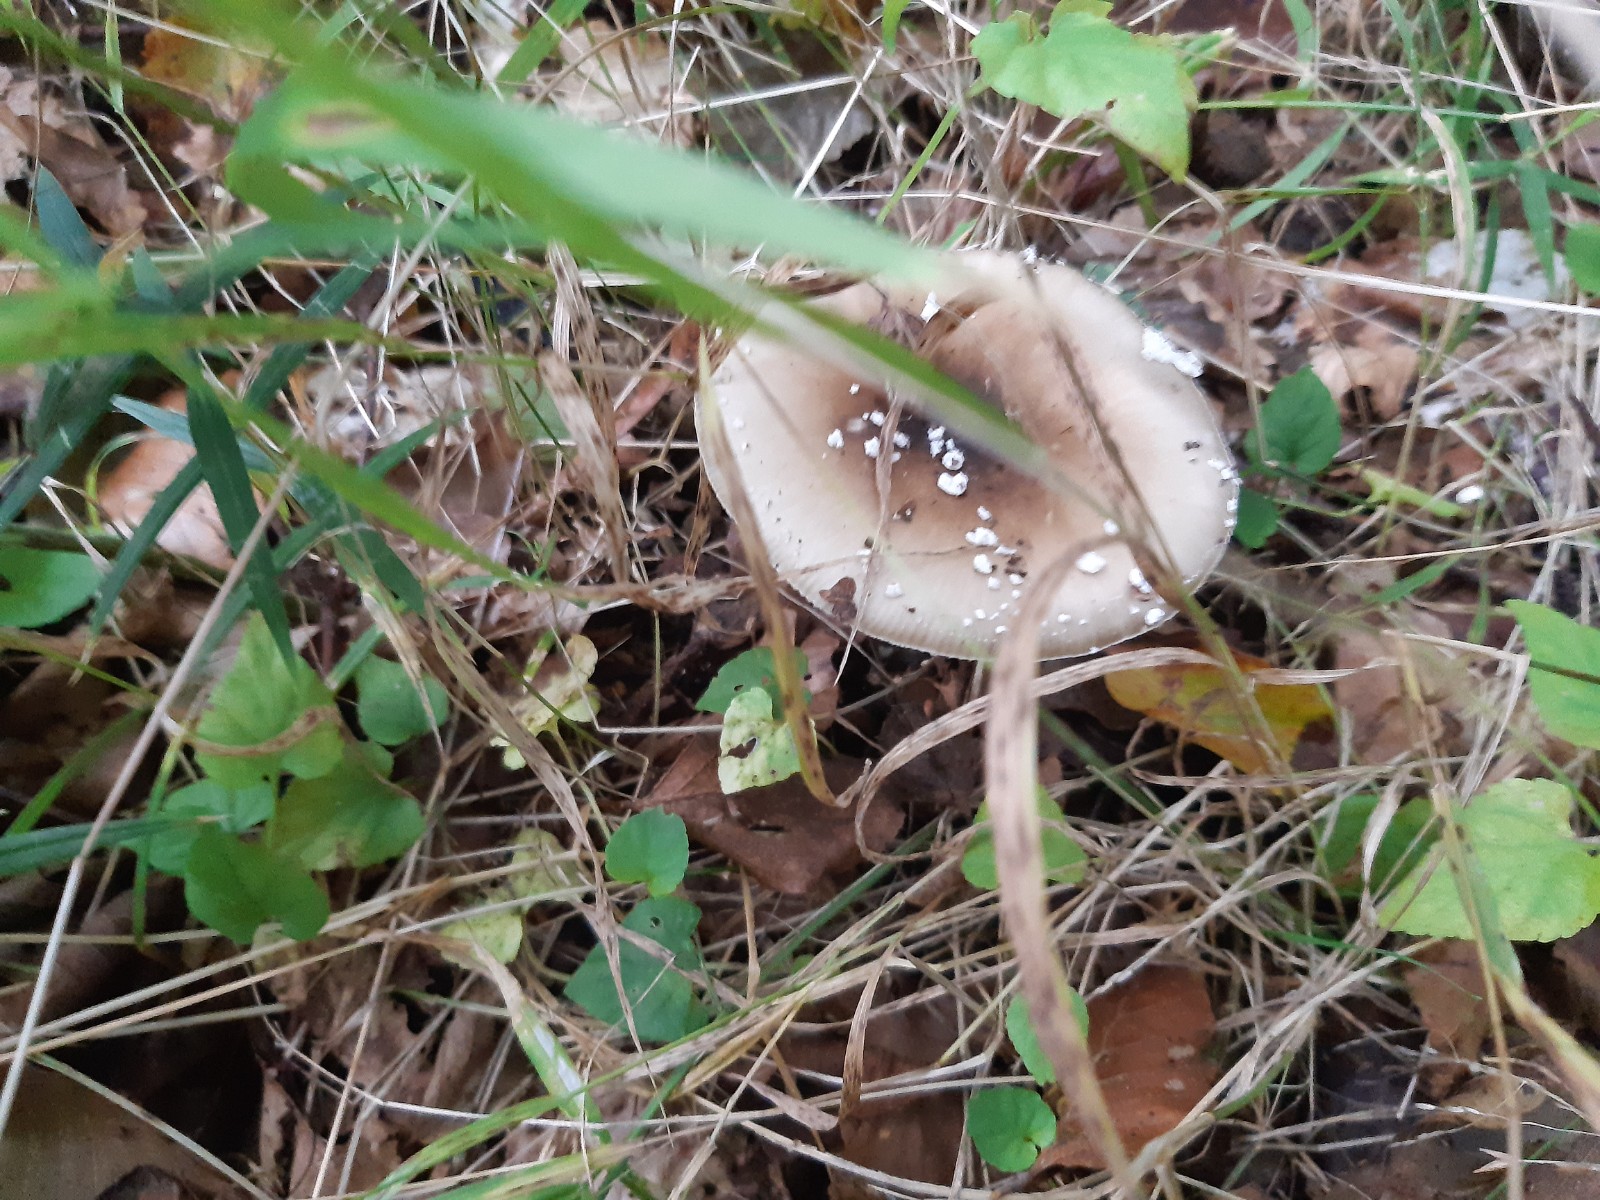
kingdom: Fungi
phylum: Basidiomycota
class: Agaricomycetes
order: Agaricales
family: Amanitaceae
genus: Amanita
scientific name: Amanita pantherina
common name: panter-fluesvamp
